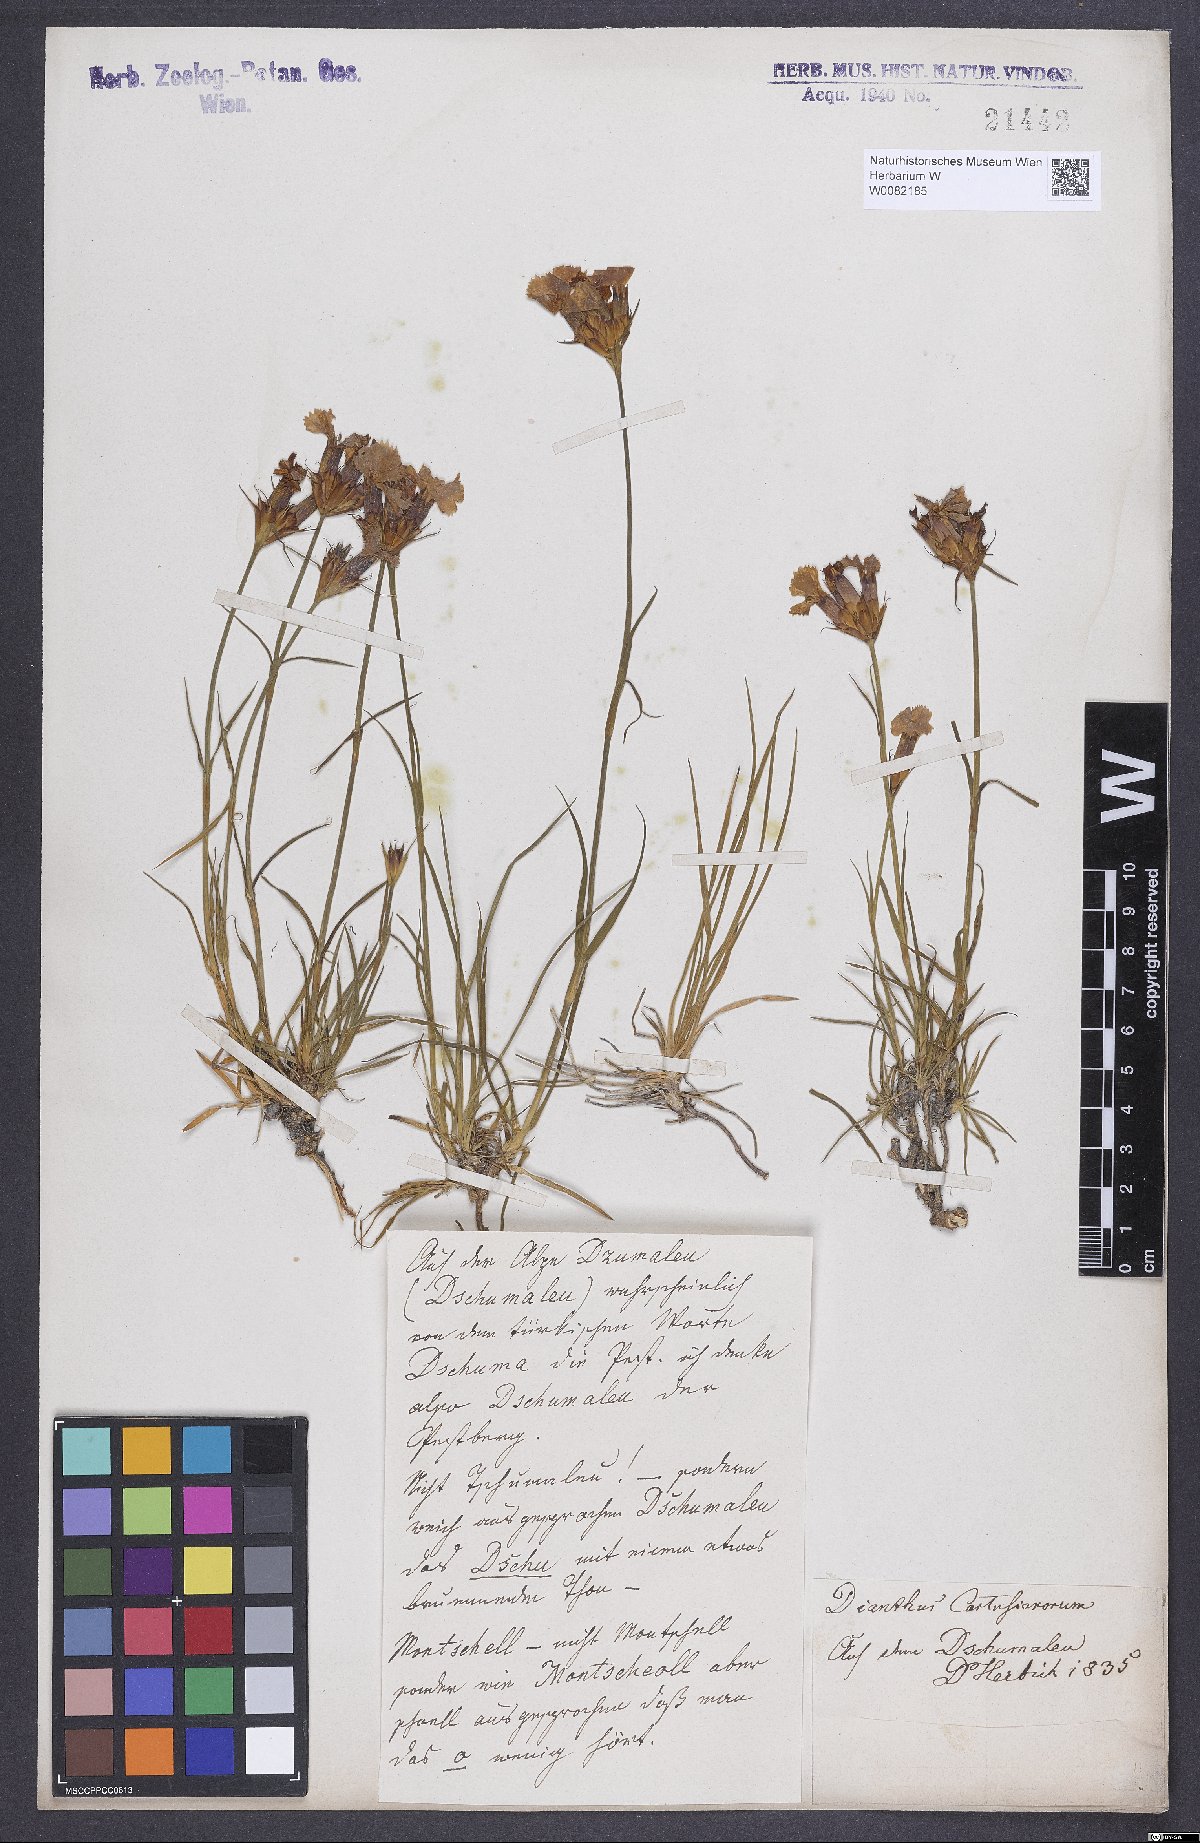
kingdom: Plantae
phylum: Tracheophyta
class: Magnoliopsida
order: Caryophyllales
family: Caryophyllaceae
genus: Dianthus
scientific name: Dianthus carthusianorum
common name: Carthusian pink
